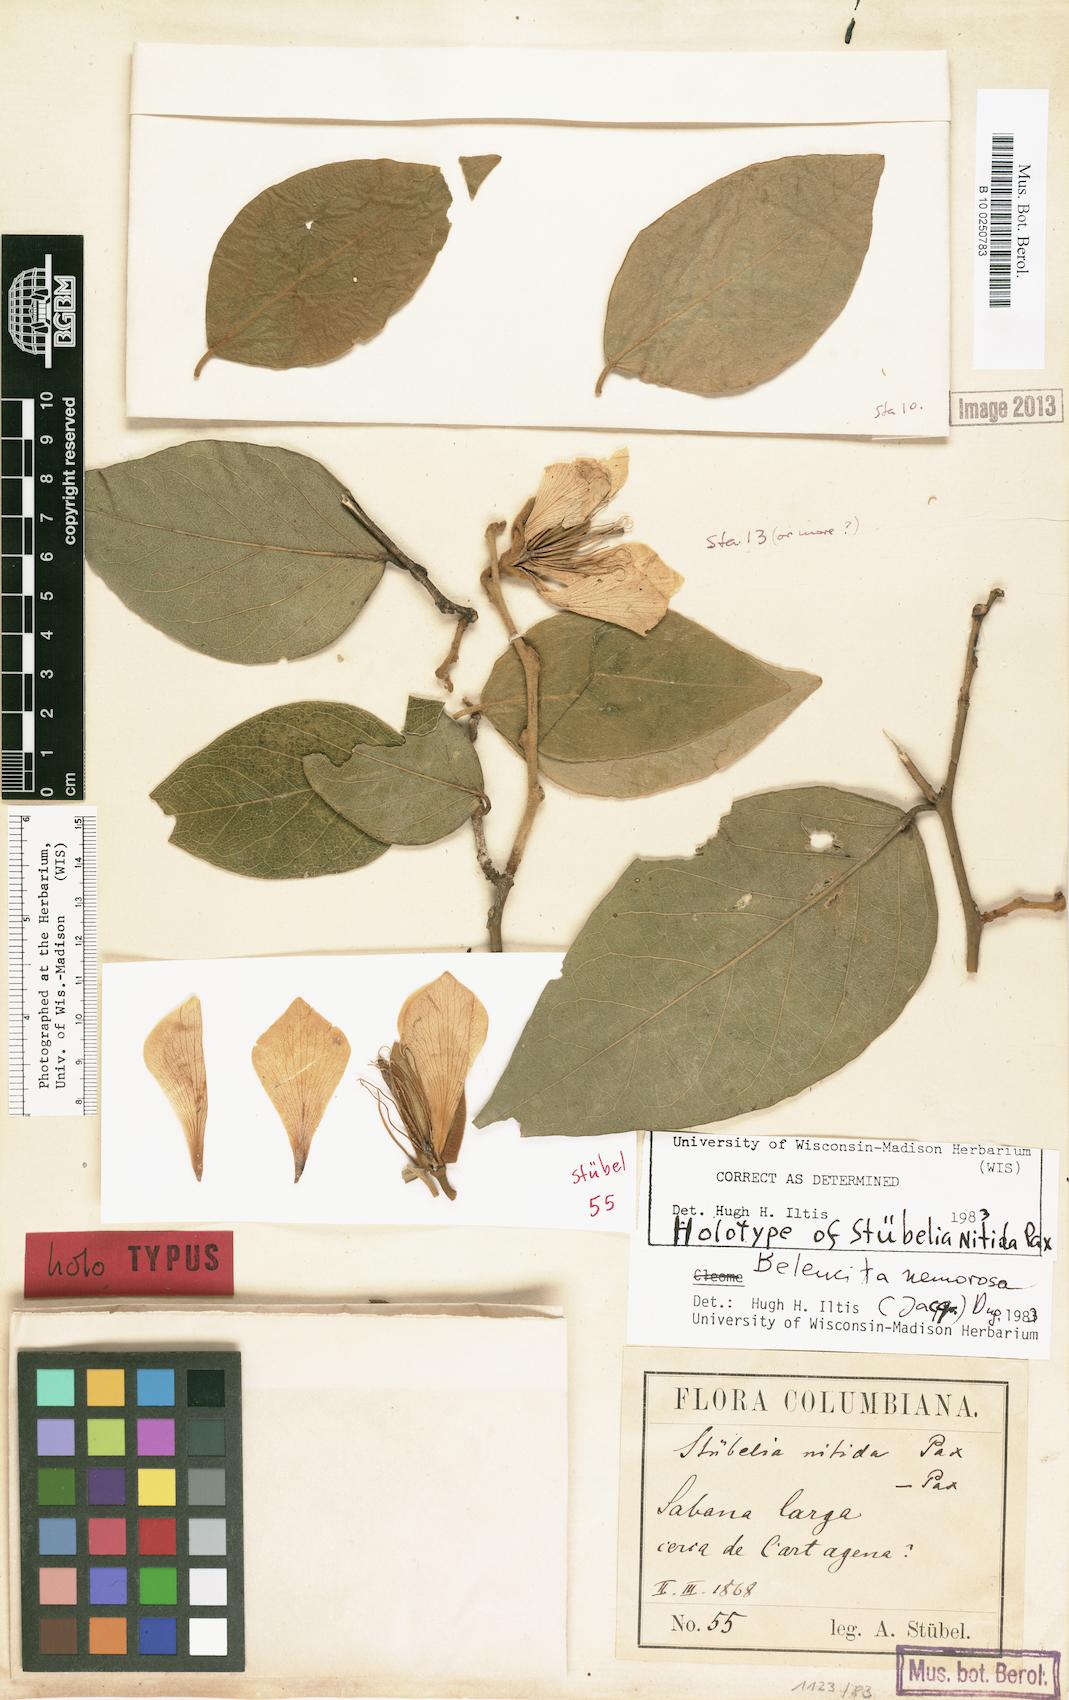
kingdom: Plantae
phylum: Tracheophyta
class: Magnoliopsida
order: Brassicales
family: Capparaceae
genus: Belencita
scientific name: Belencita nemorosa
